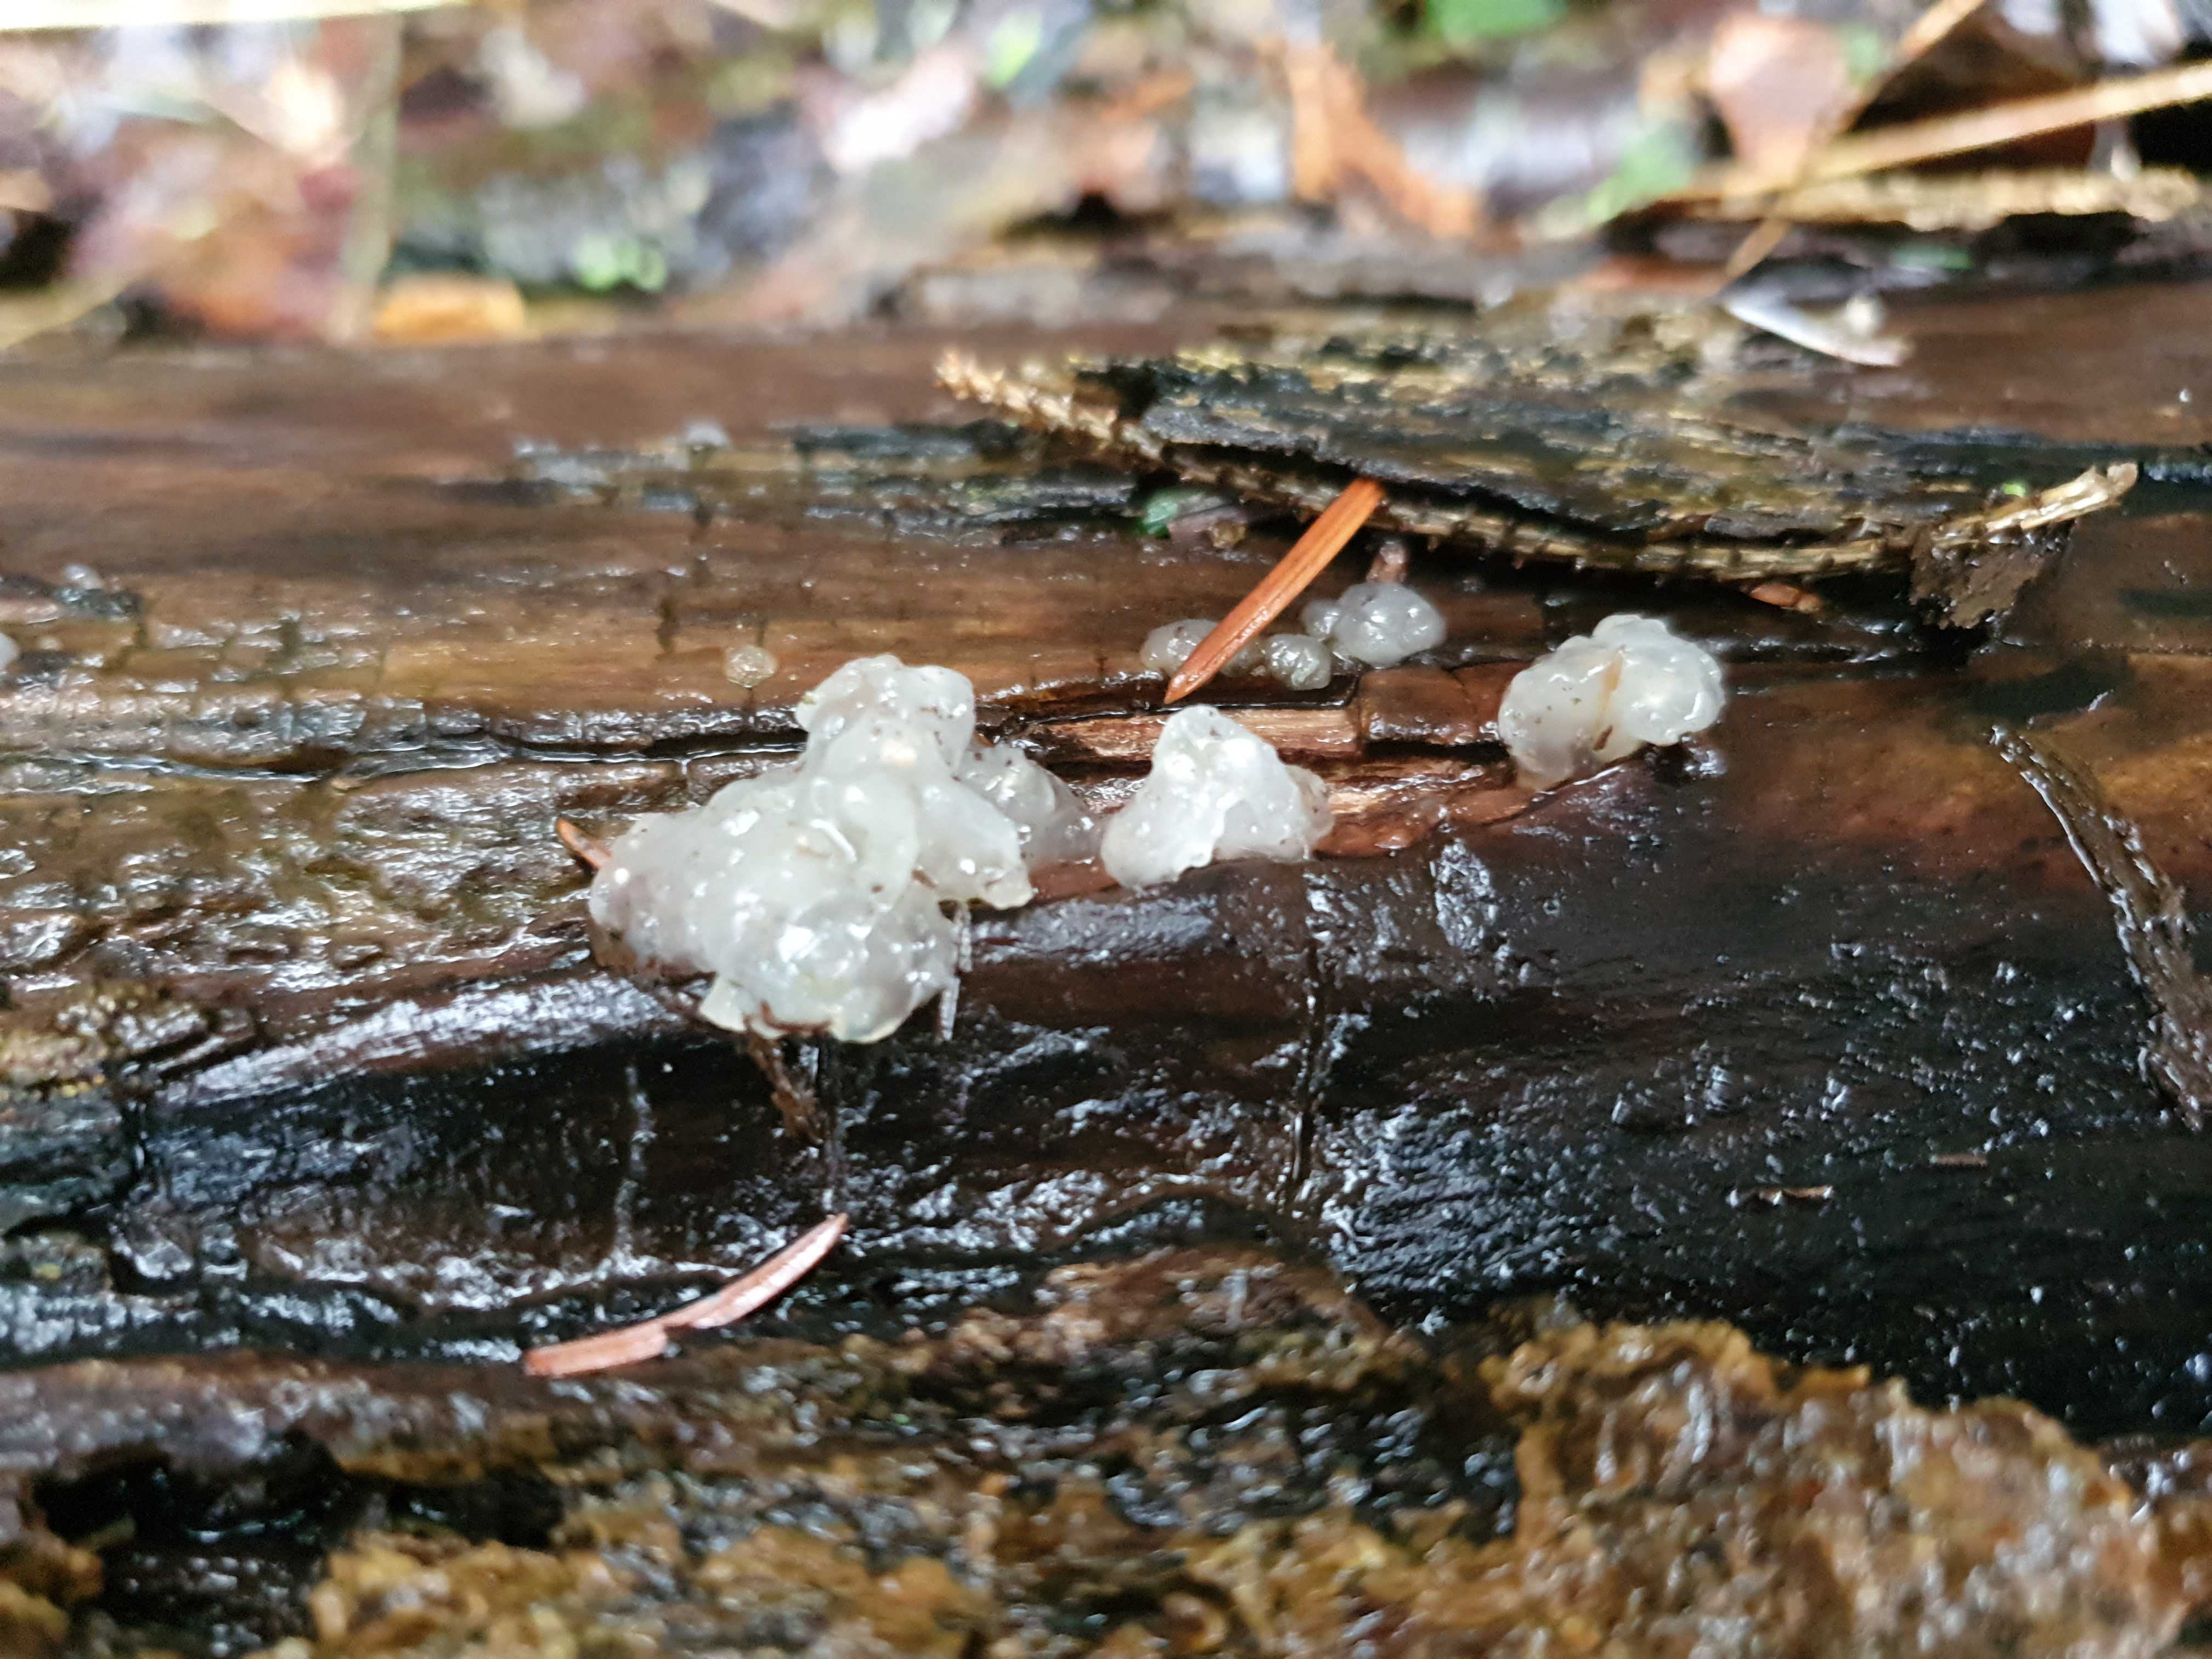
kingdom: Fungi
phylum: Basidiomycota
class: Agaricomycetes
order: Auriculariales
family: Hyaloriaceae
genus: Myxarium
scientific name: Myxarium nucleatum
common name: klar bævretop
